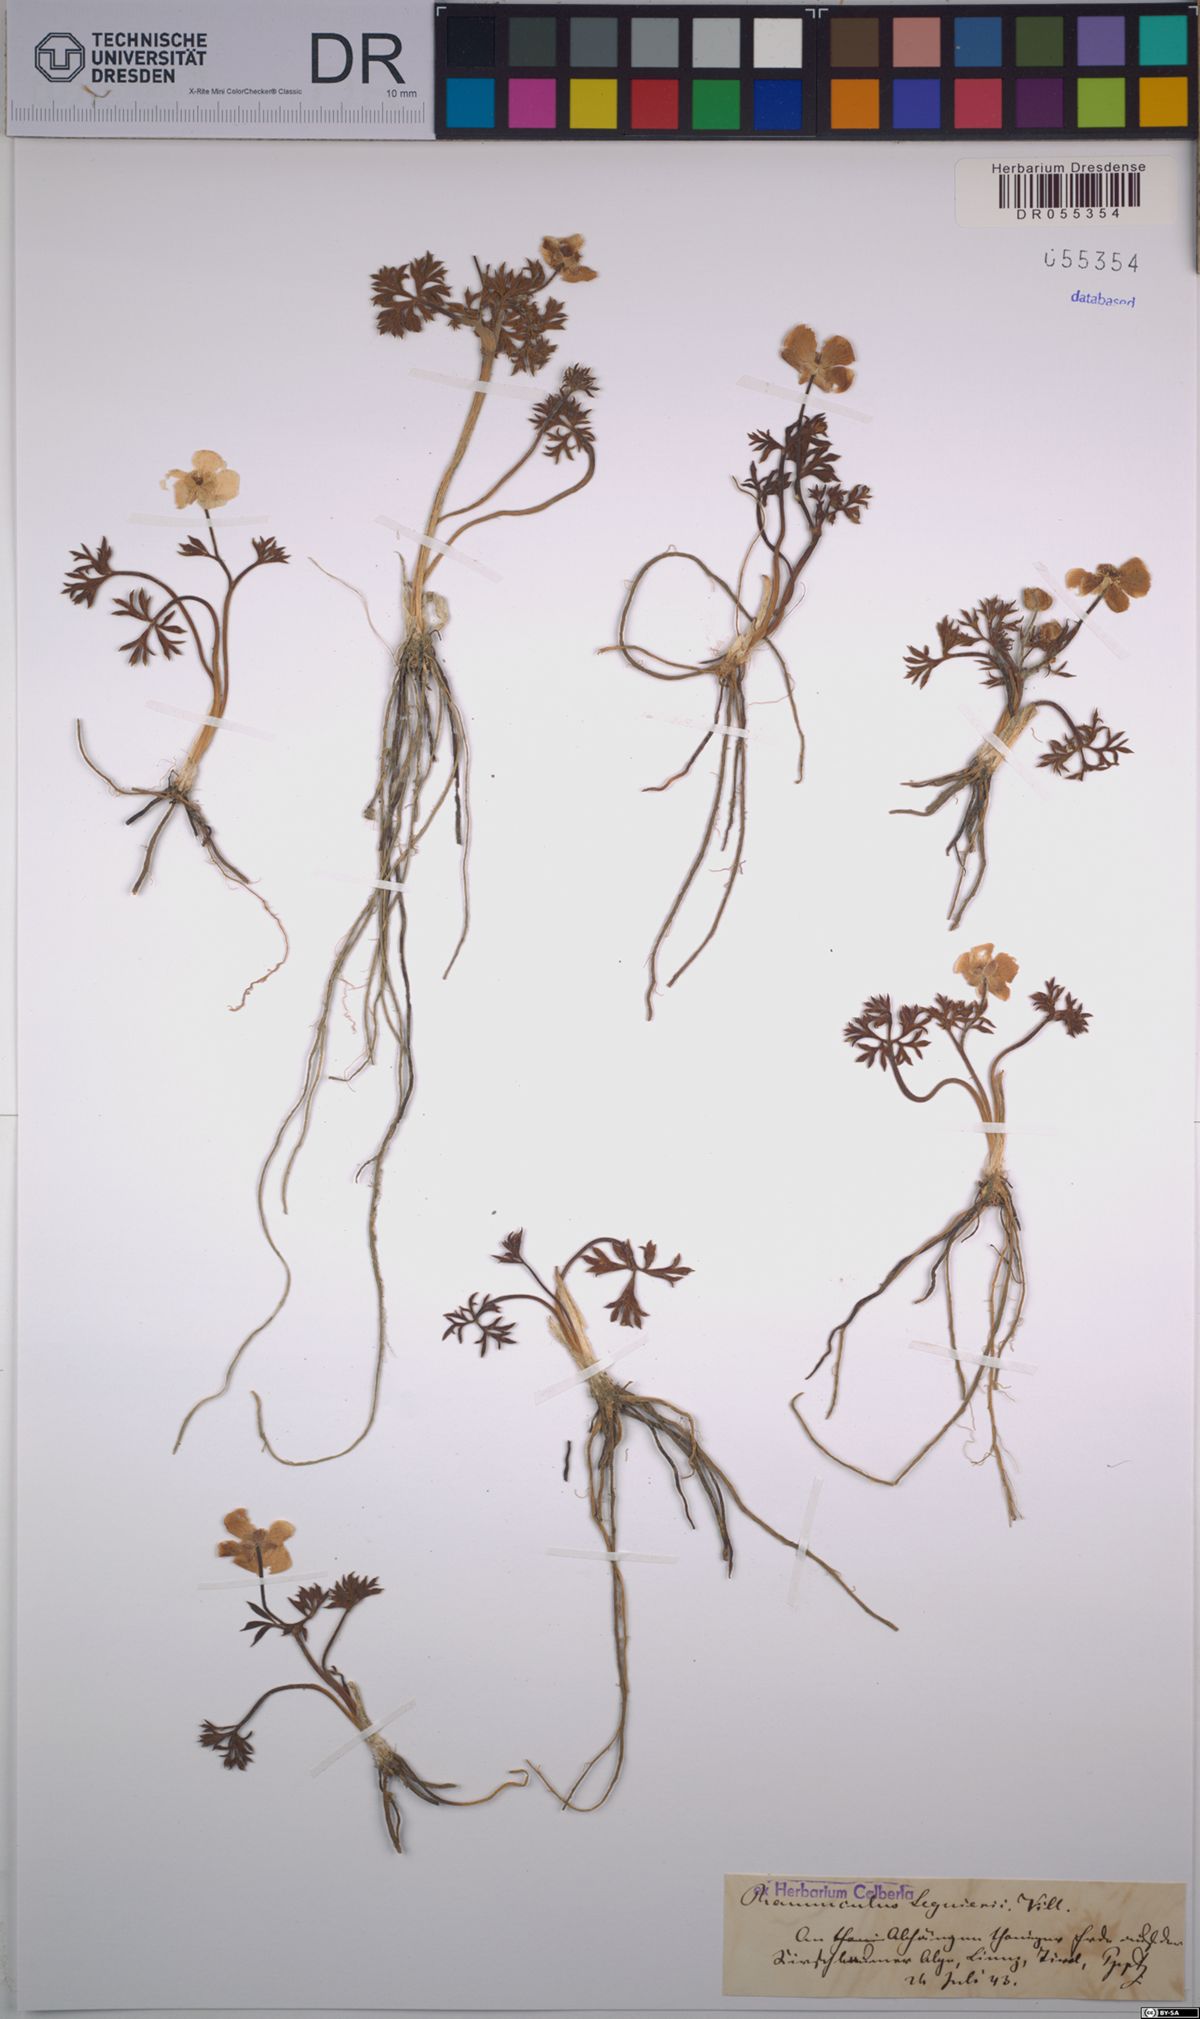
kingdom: Plantae
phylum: Tracheophyta
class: Magnoliopsida
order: Ranunculales
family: Ranunculaceae
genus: Ranunculus
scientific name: Ranunculus seguieri
